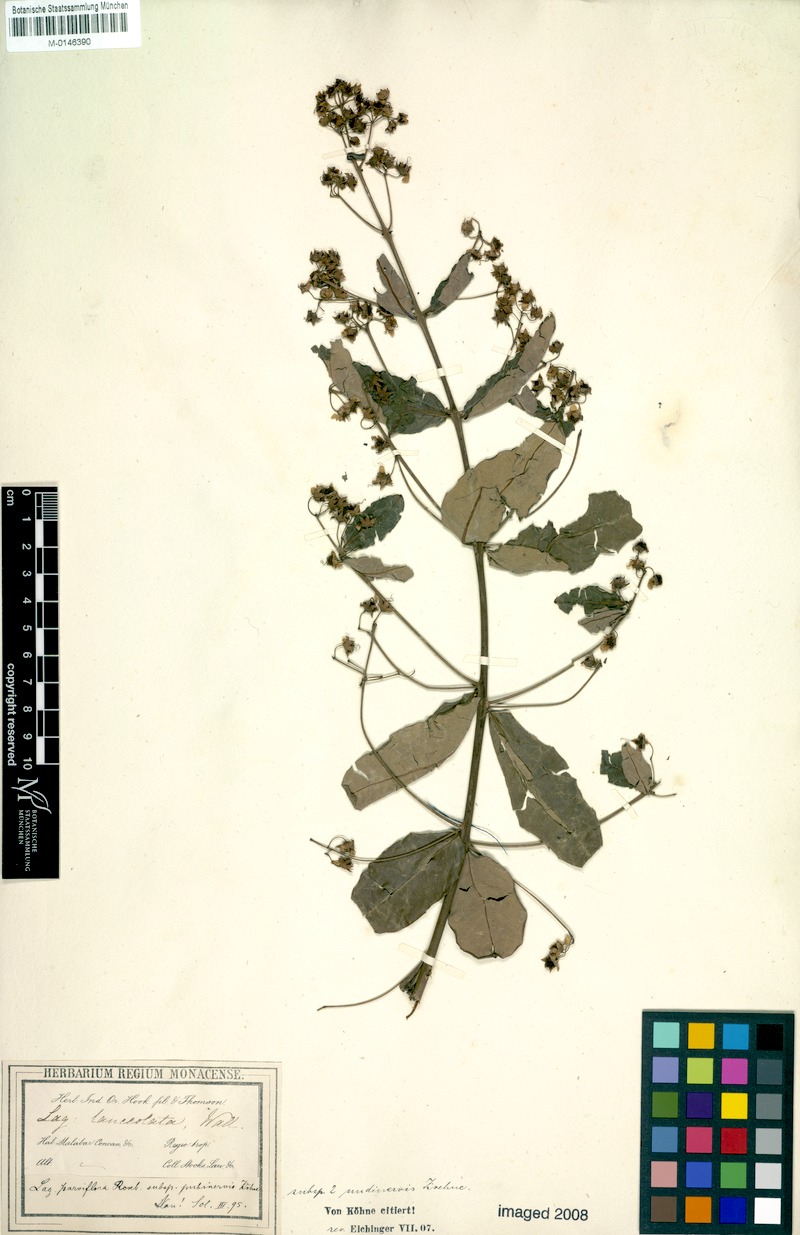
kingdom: Plantae
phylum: Tracheophyta
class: Magnoliopsida
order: Myrtales
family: Lythraceae
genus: Lagerstroemia
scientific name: Lagerstroemia parviflora
